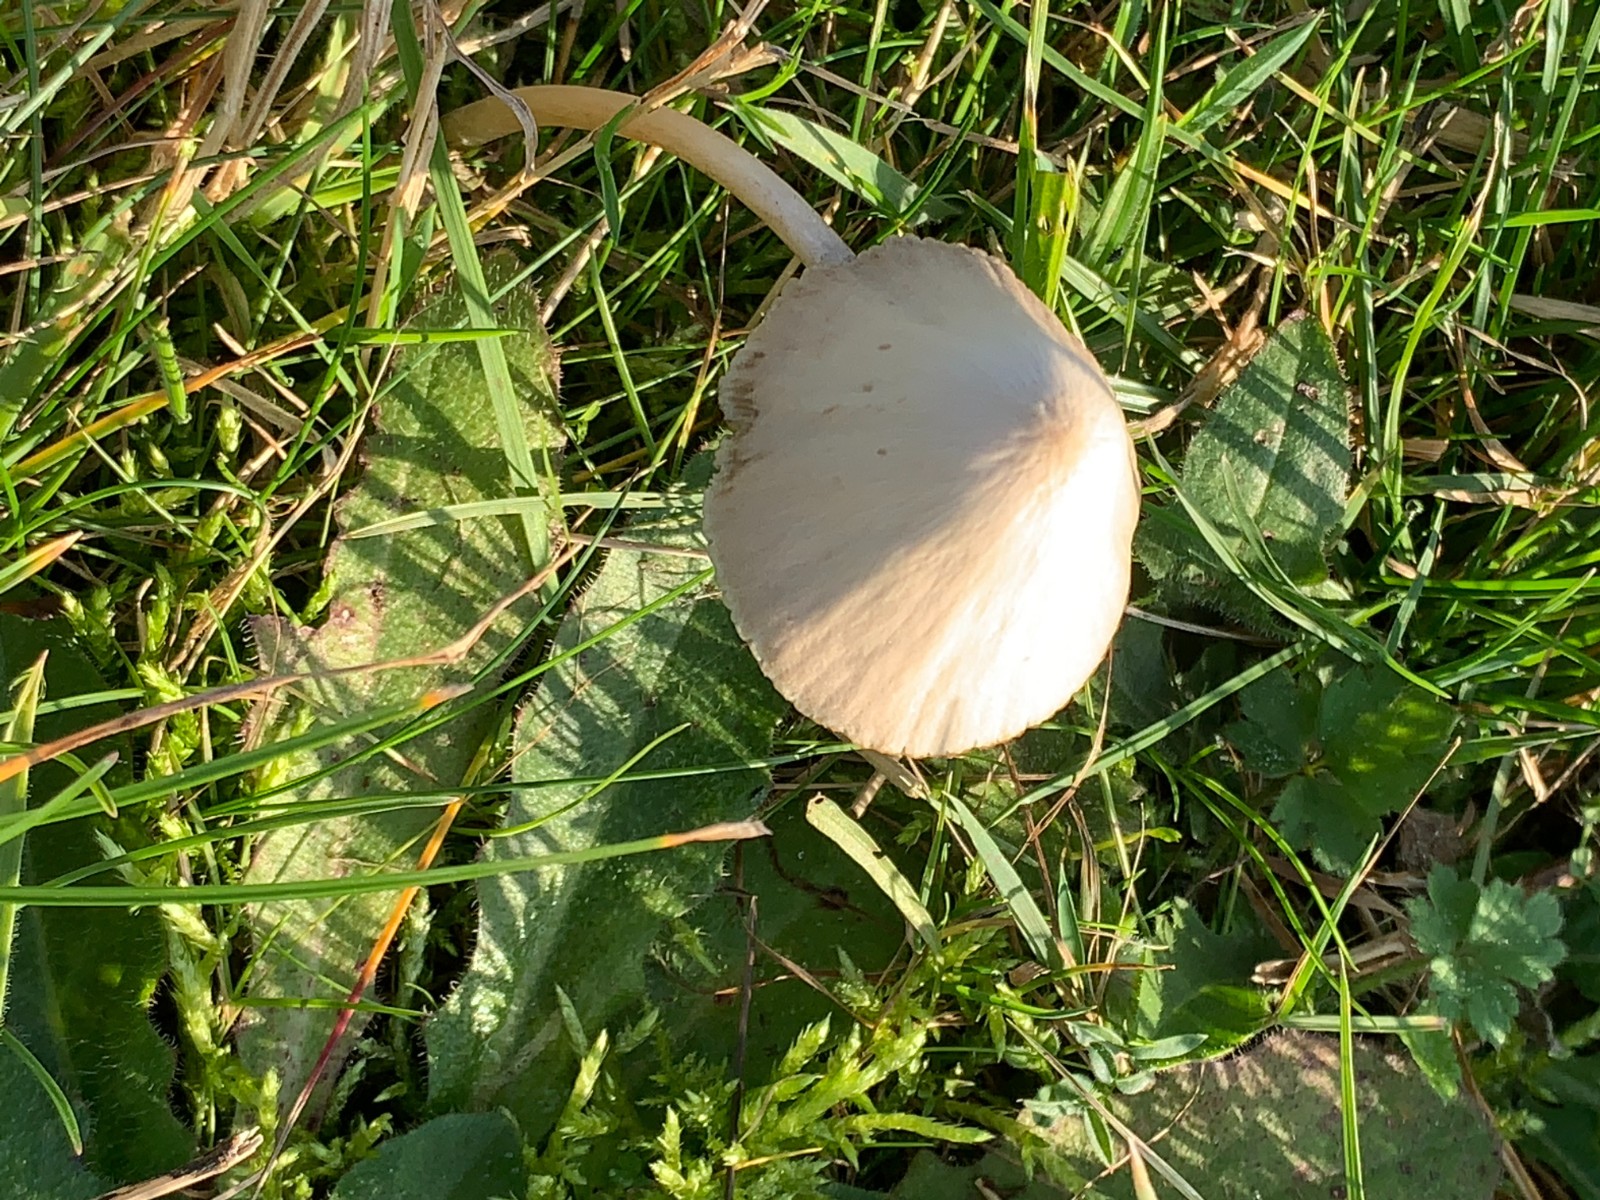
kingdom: Fungi
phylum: Basidiomycota
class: Agaricomycetes
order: Agaricales
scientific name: Agaricales
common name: champignonordenen
